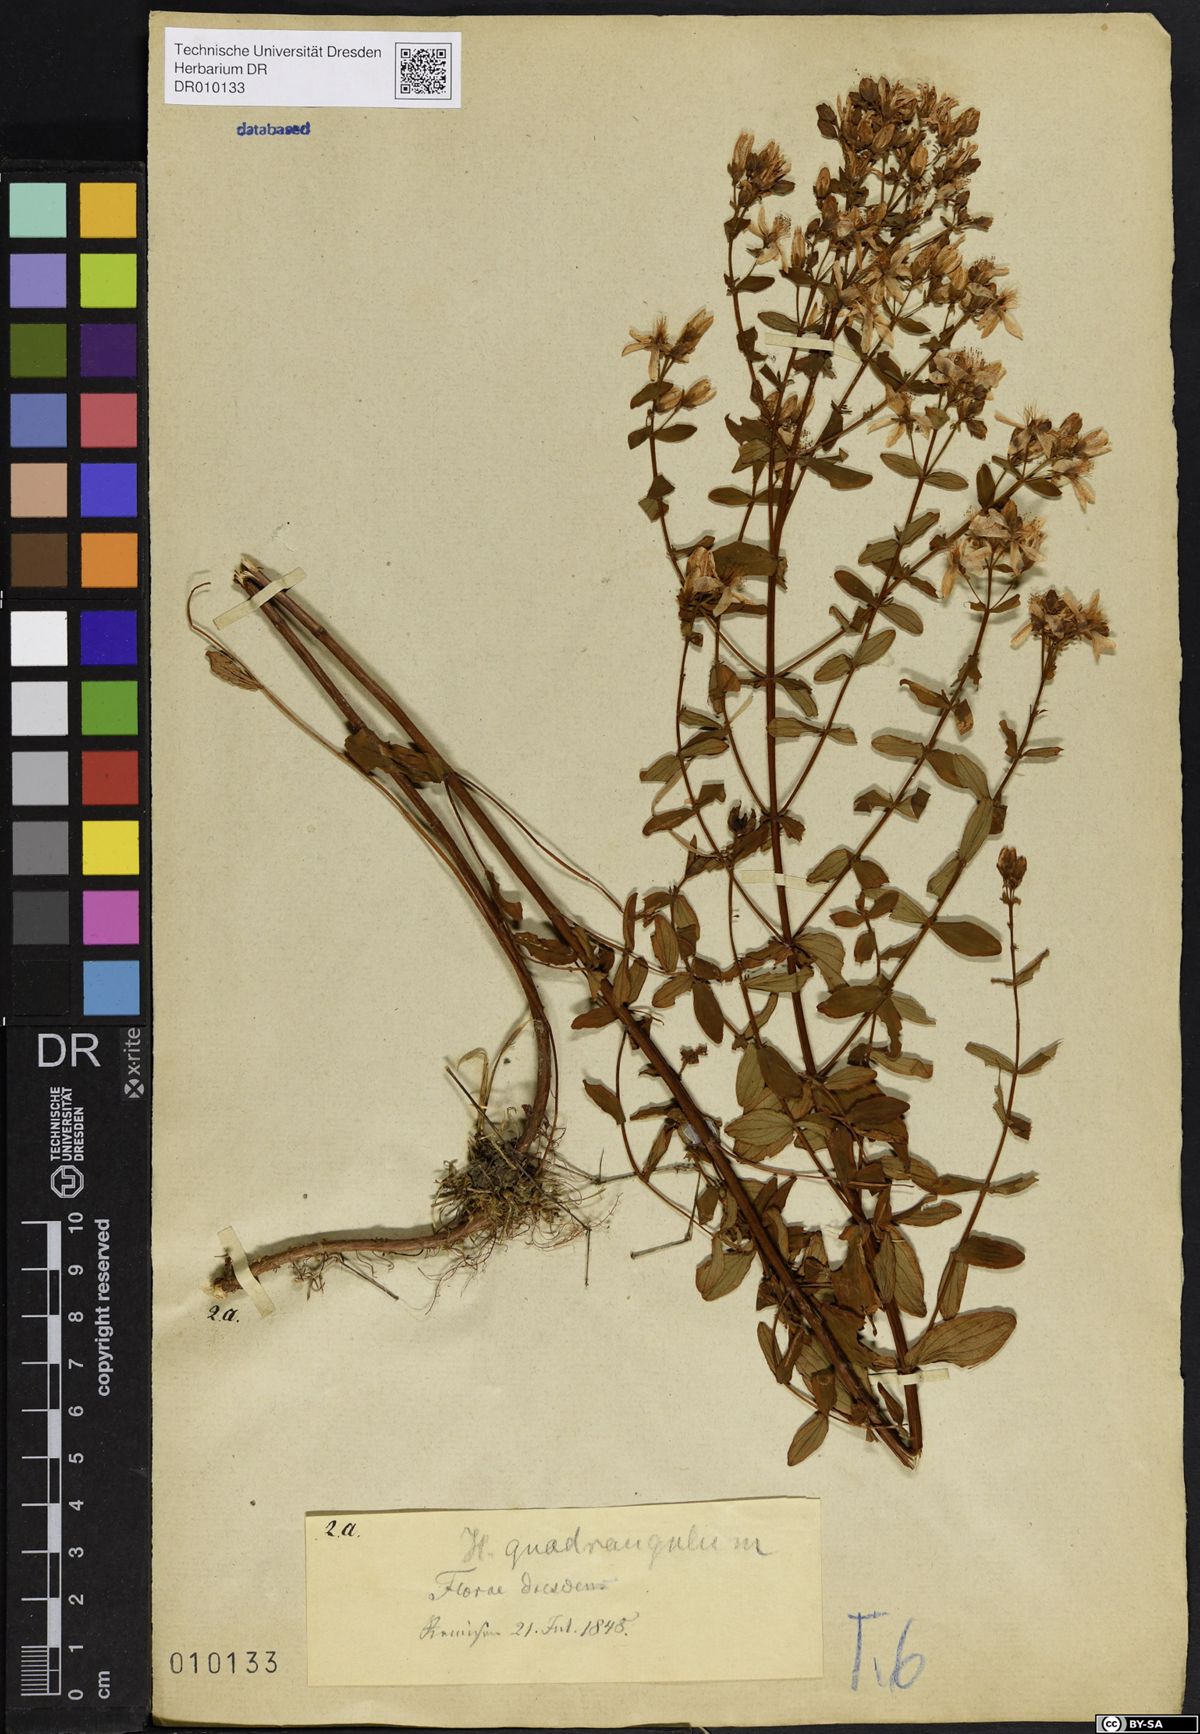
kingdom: Plantae
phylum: Tracheophyta
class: Magnoliopsida
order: Malpighiales
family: Hypericaceae
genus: Hypericum
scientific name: Hypericum maculatum
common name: Imperforate st. john's-wort
